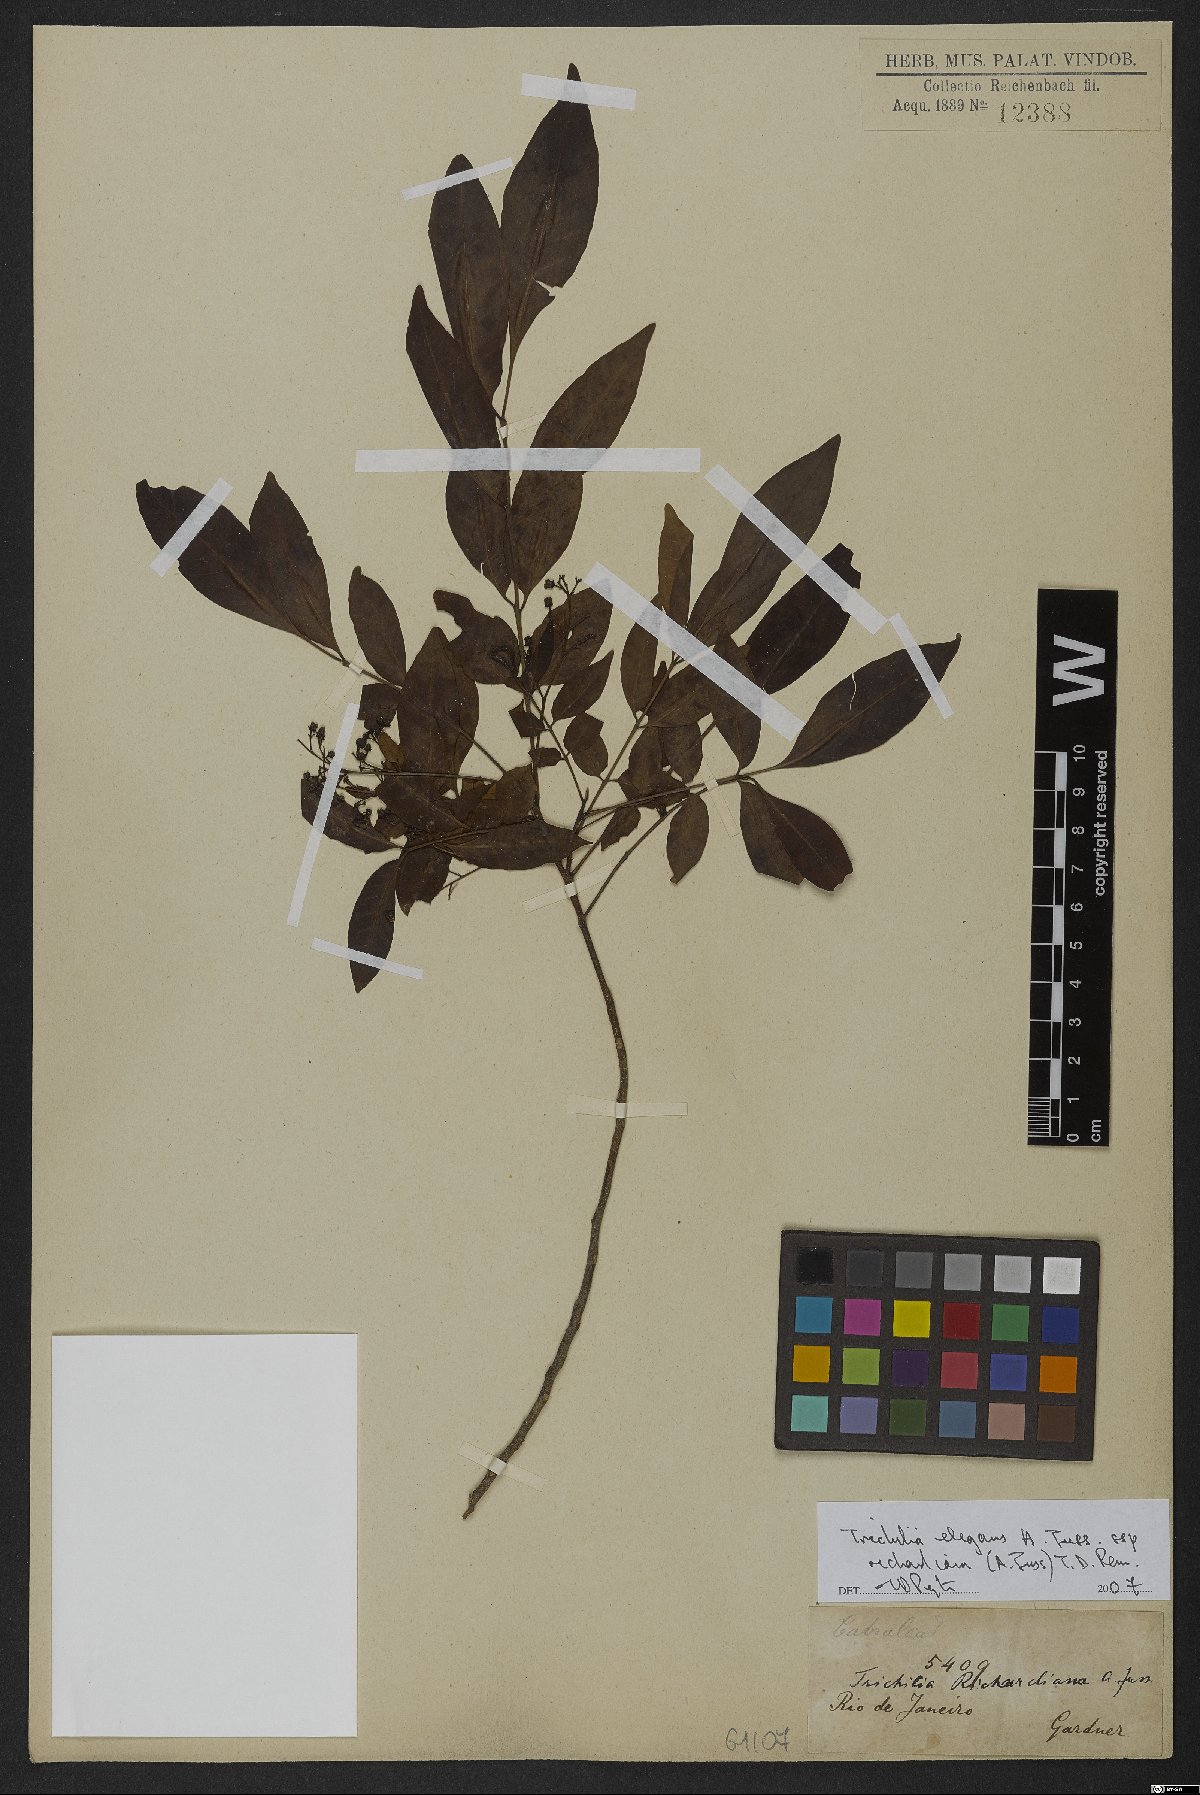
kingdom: Plantae
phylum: Tracheophyta
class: Magnoliopsida
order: Sapindales
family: Meliaceae
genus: Trichilia
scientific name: Trichilia elegans
